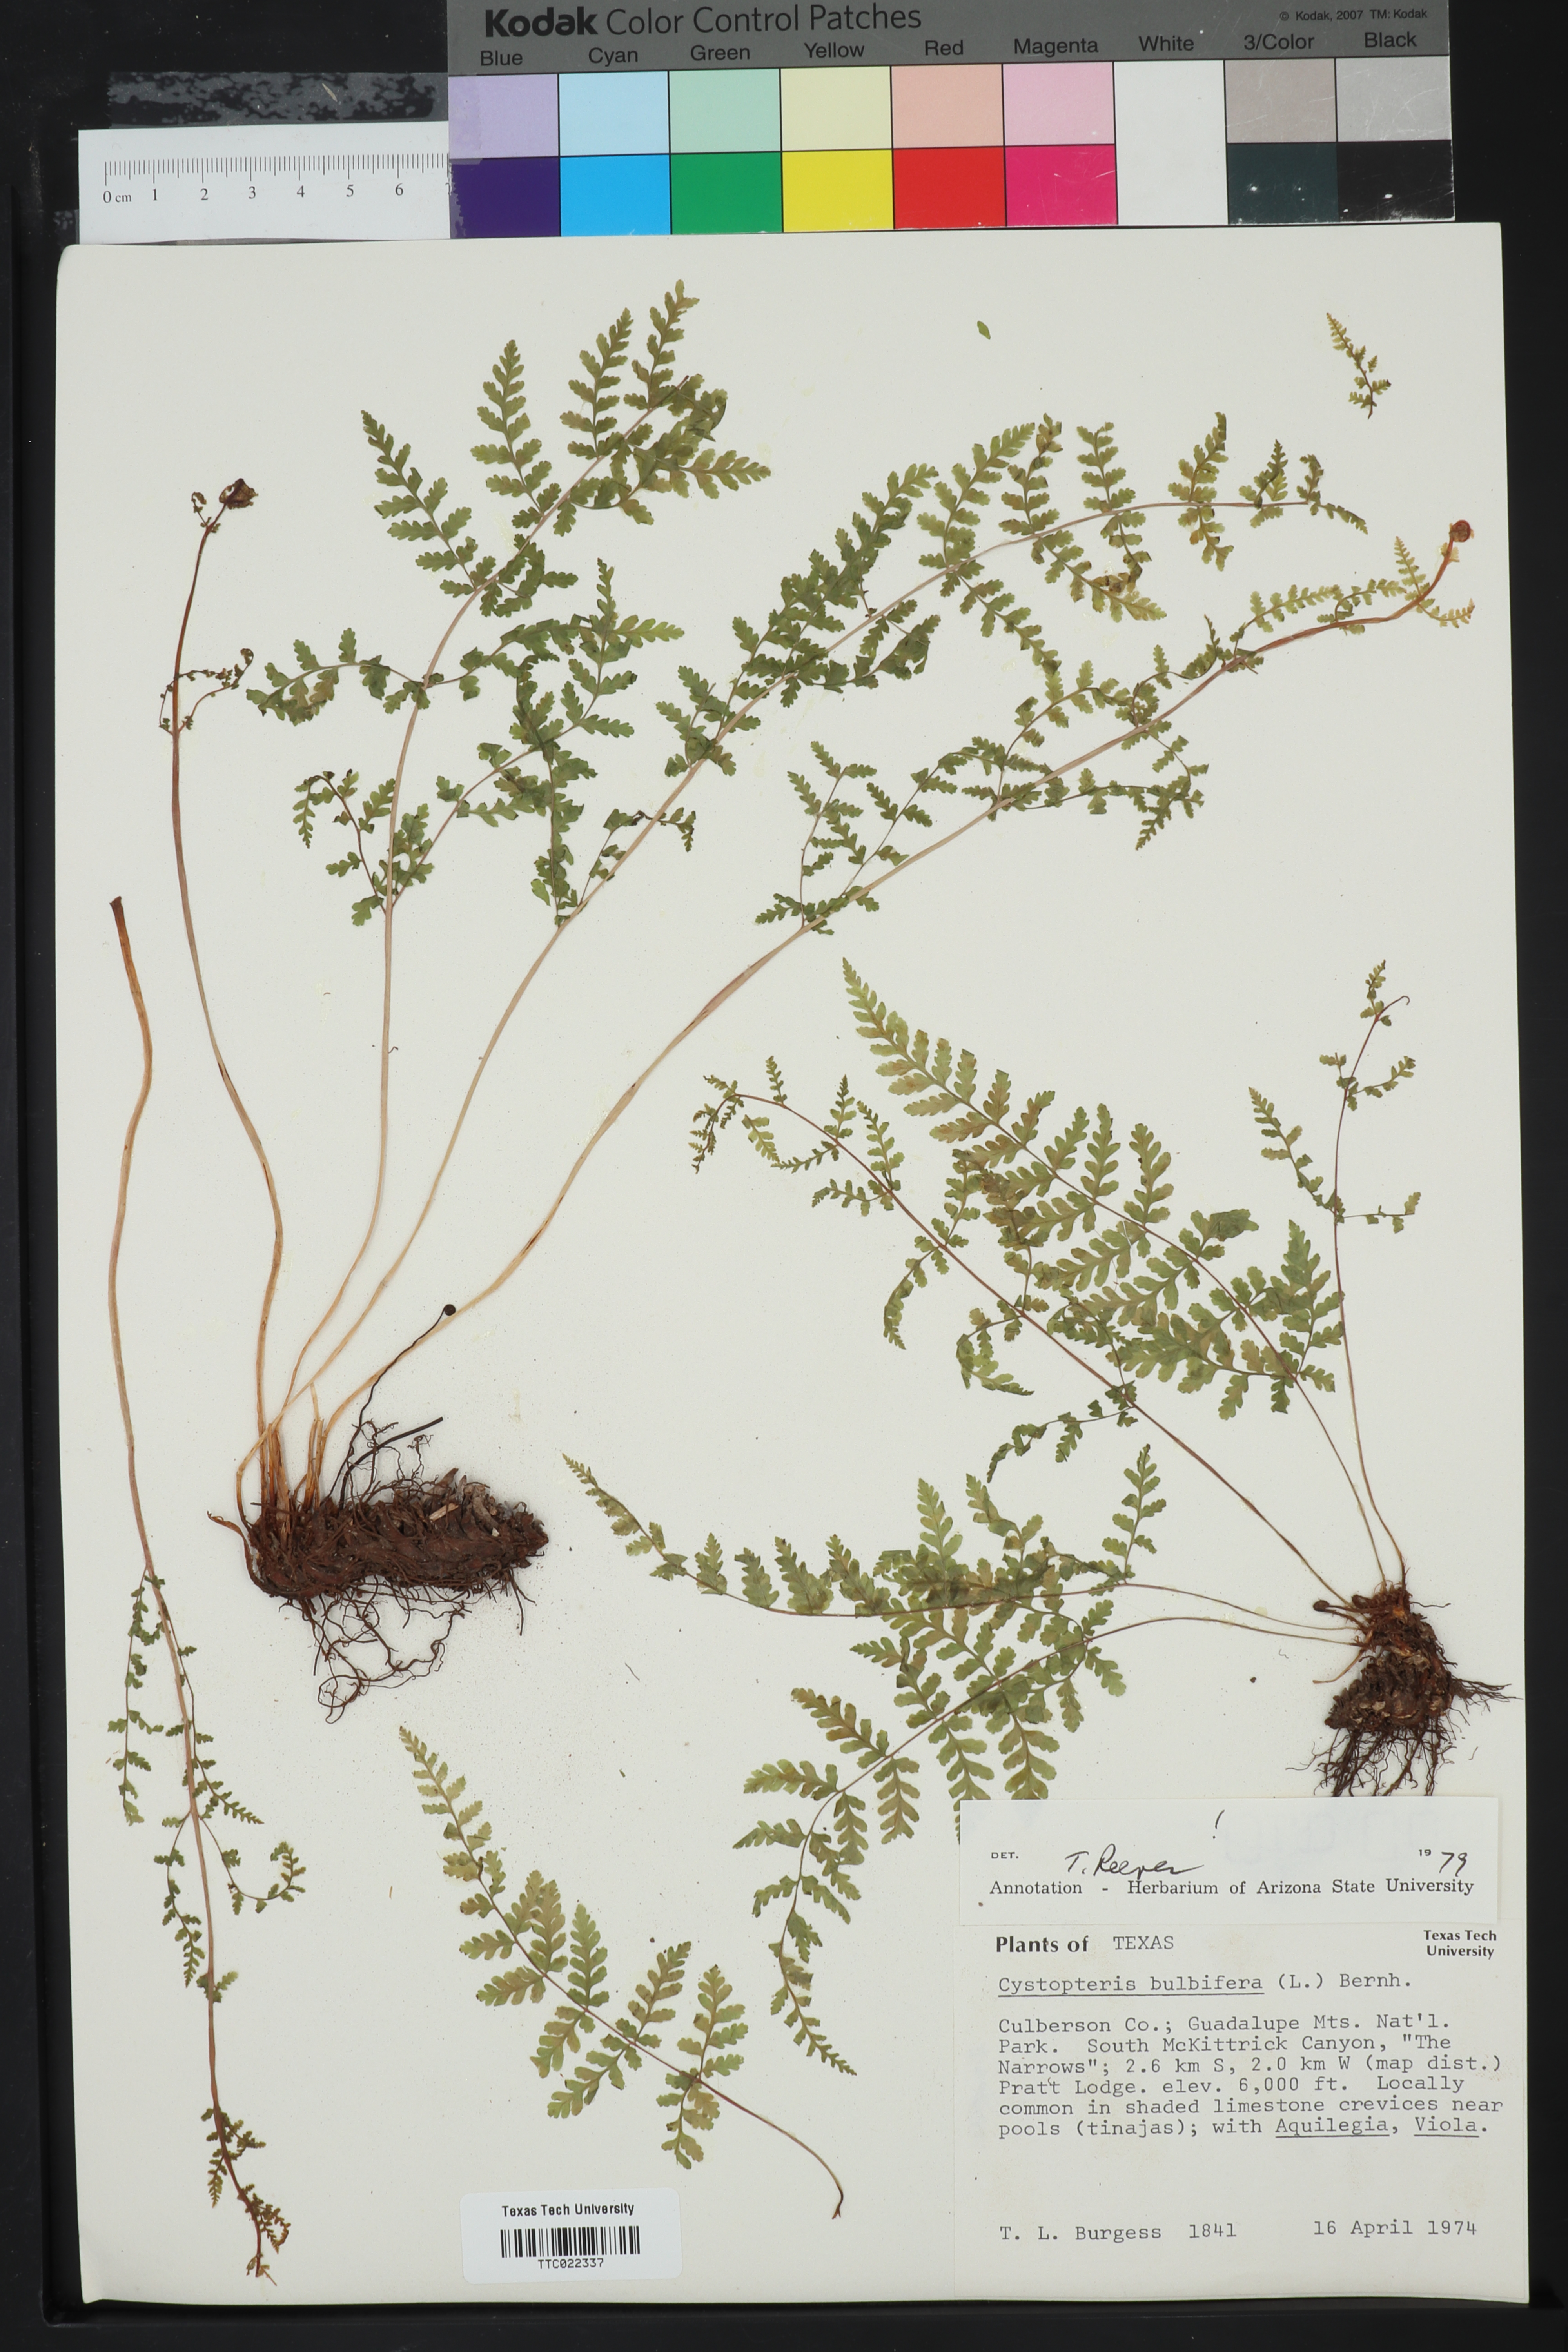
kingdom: Plantae
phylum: Tracheophyta
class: Polypodiopsida
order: Polypodiales
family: Cystopteridaceae
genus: Cystopteris
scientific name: Cystopteris bulbifera
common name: Bulblet bladder fern
